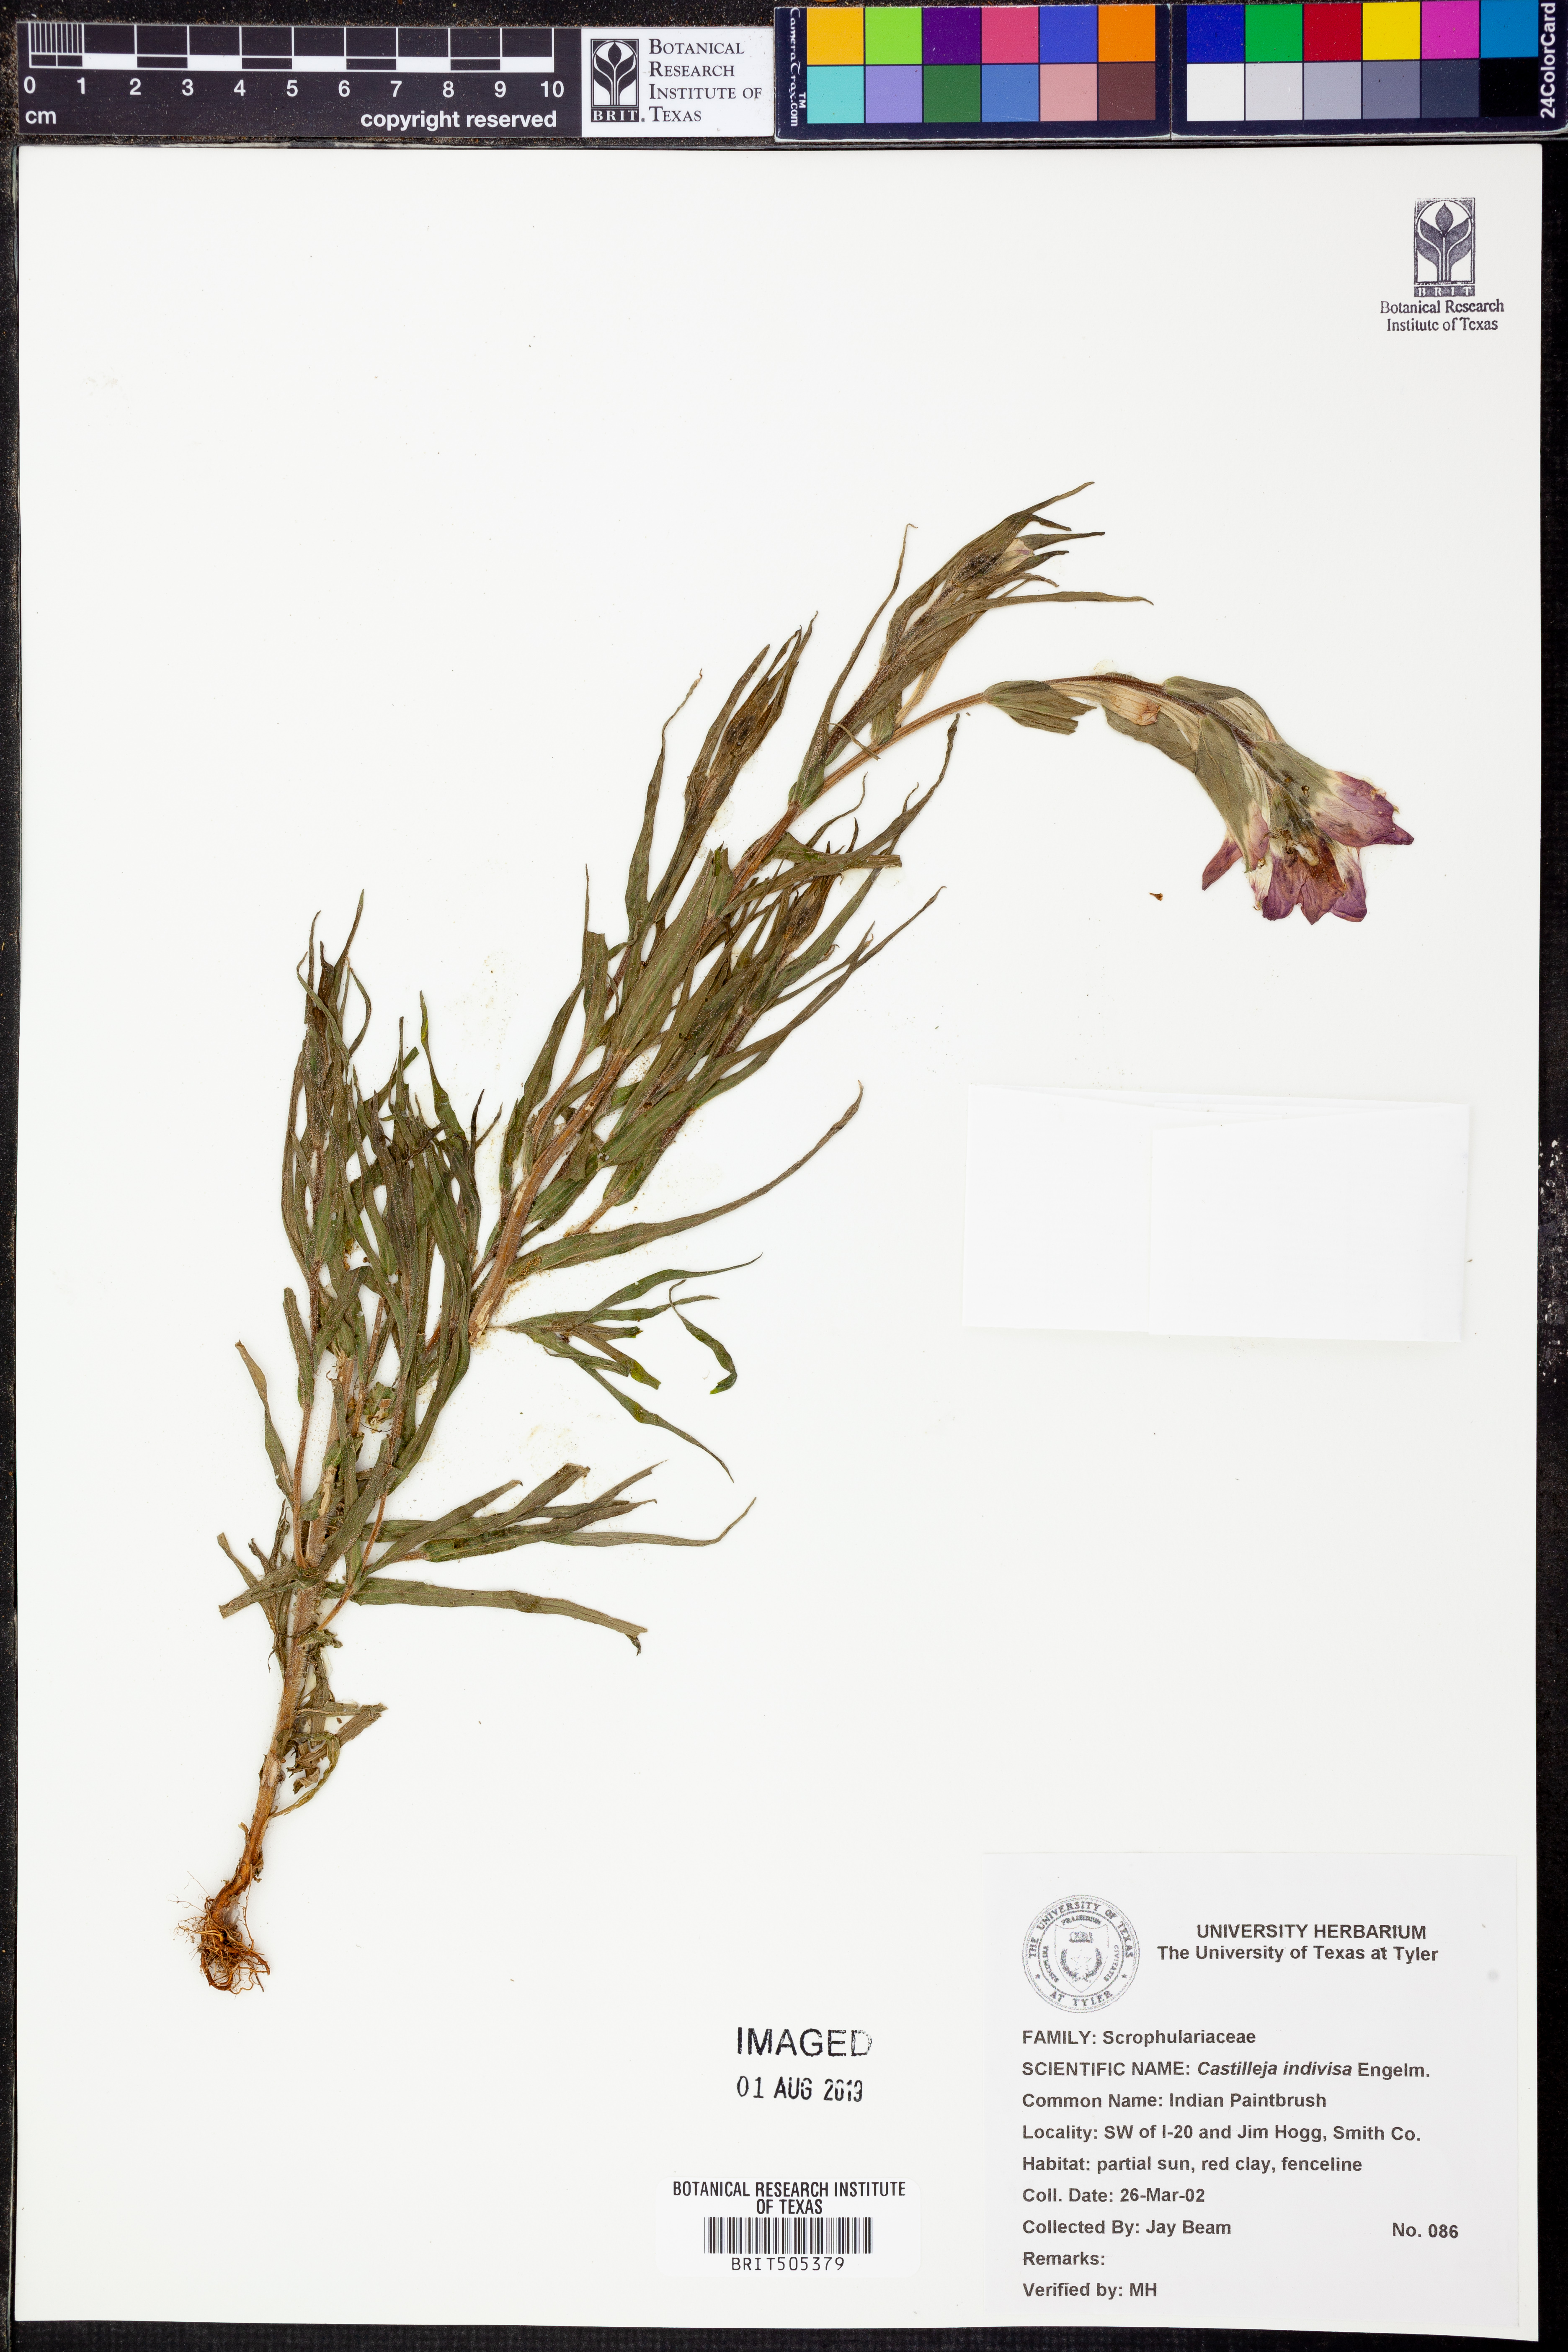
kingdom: Plantae
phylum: Tracheophyta
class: Magnoliopsida
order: Lamiales
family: Orobanchaceae
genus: Castilleja
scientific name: Castilleja indivisa
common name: Texas paintbrush
